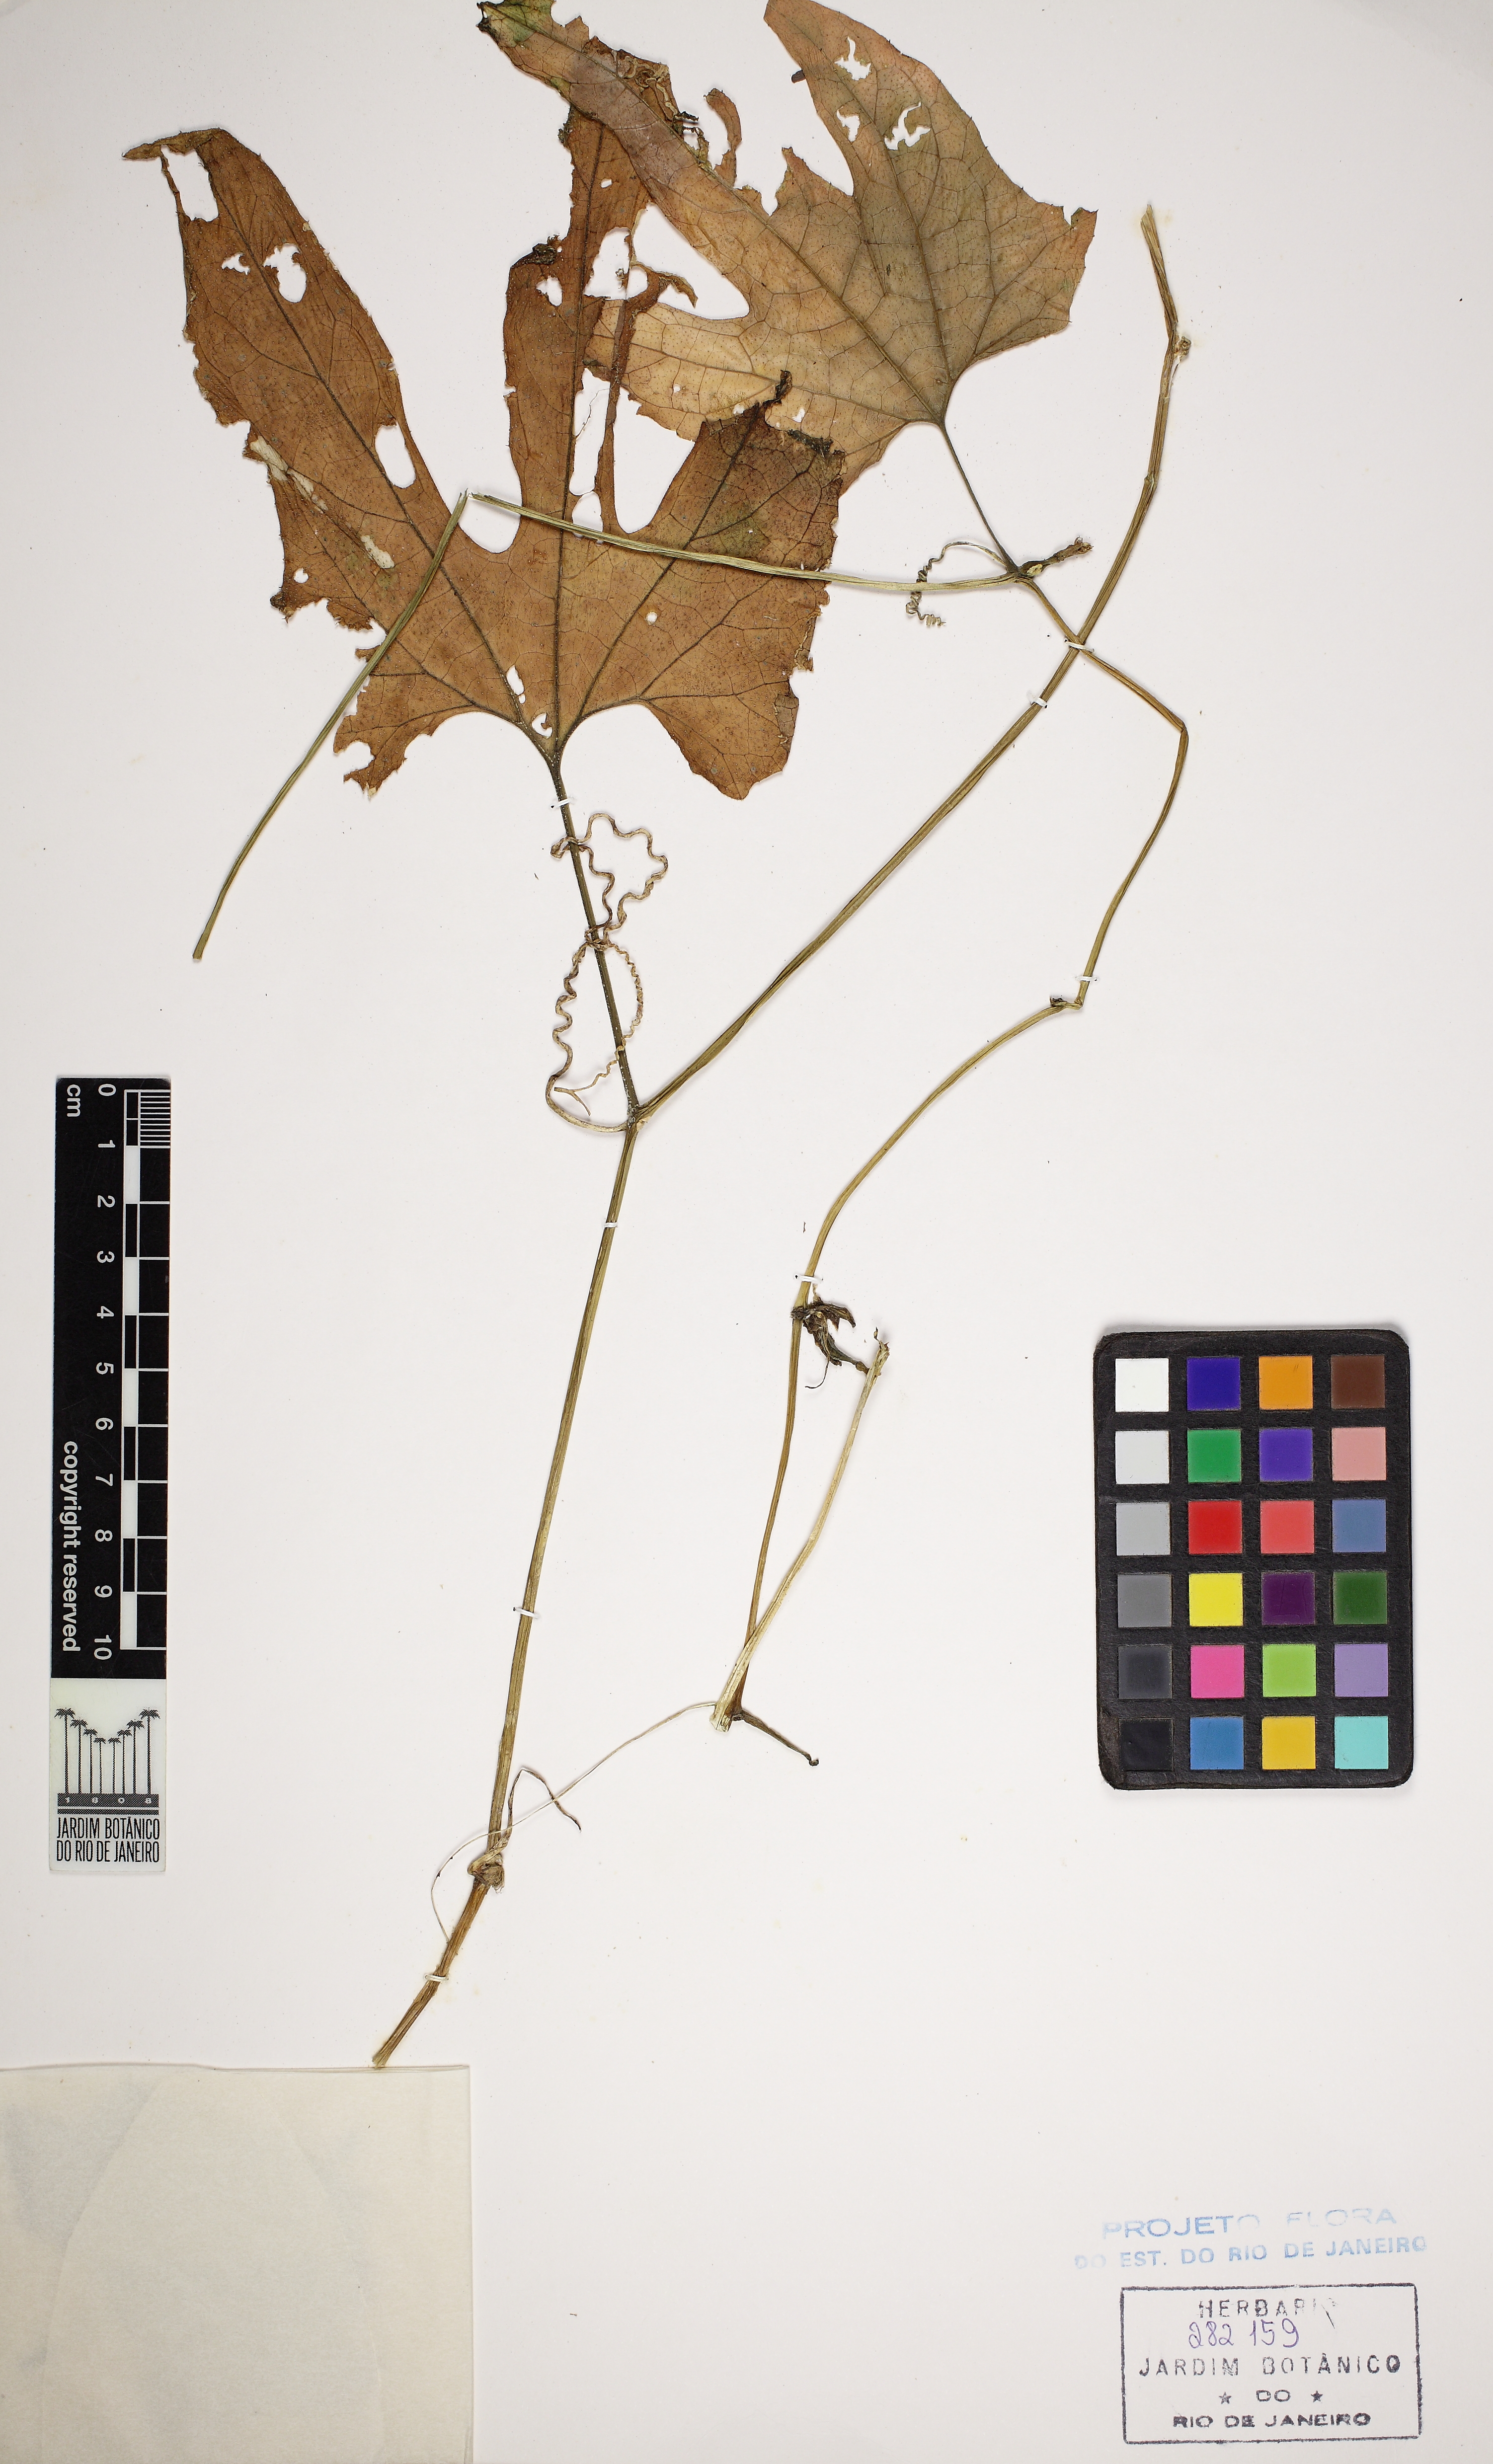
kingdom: Plantae
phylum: Tracheophyta
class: Magnoliopsida
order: Cucurbitales
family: Cucurbitaceae
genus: Wilbrandia
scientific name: Wilbrandia verticillata
